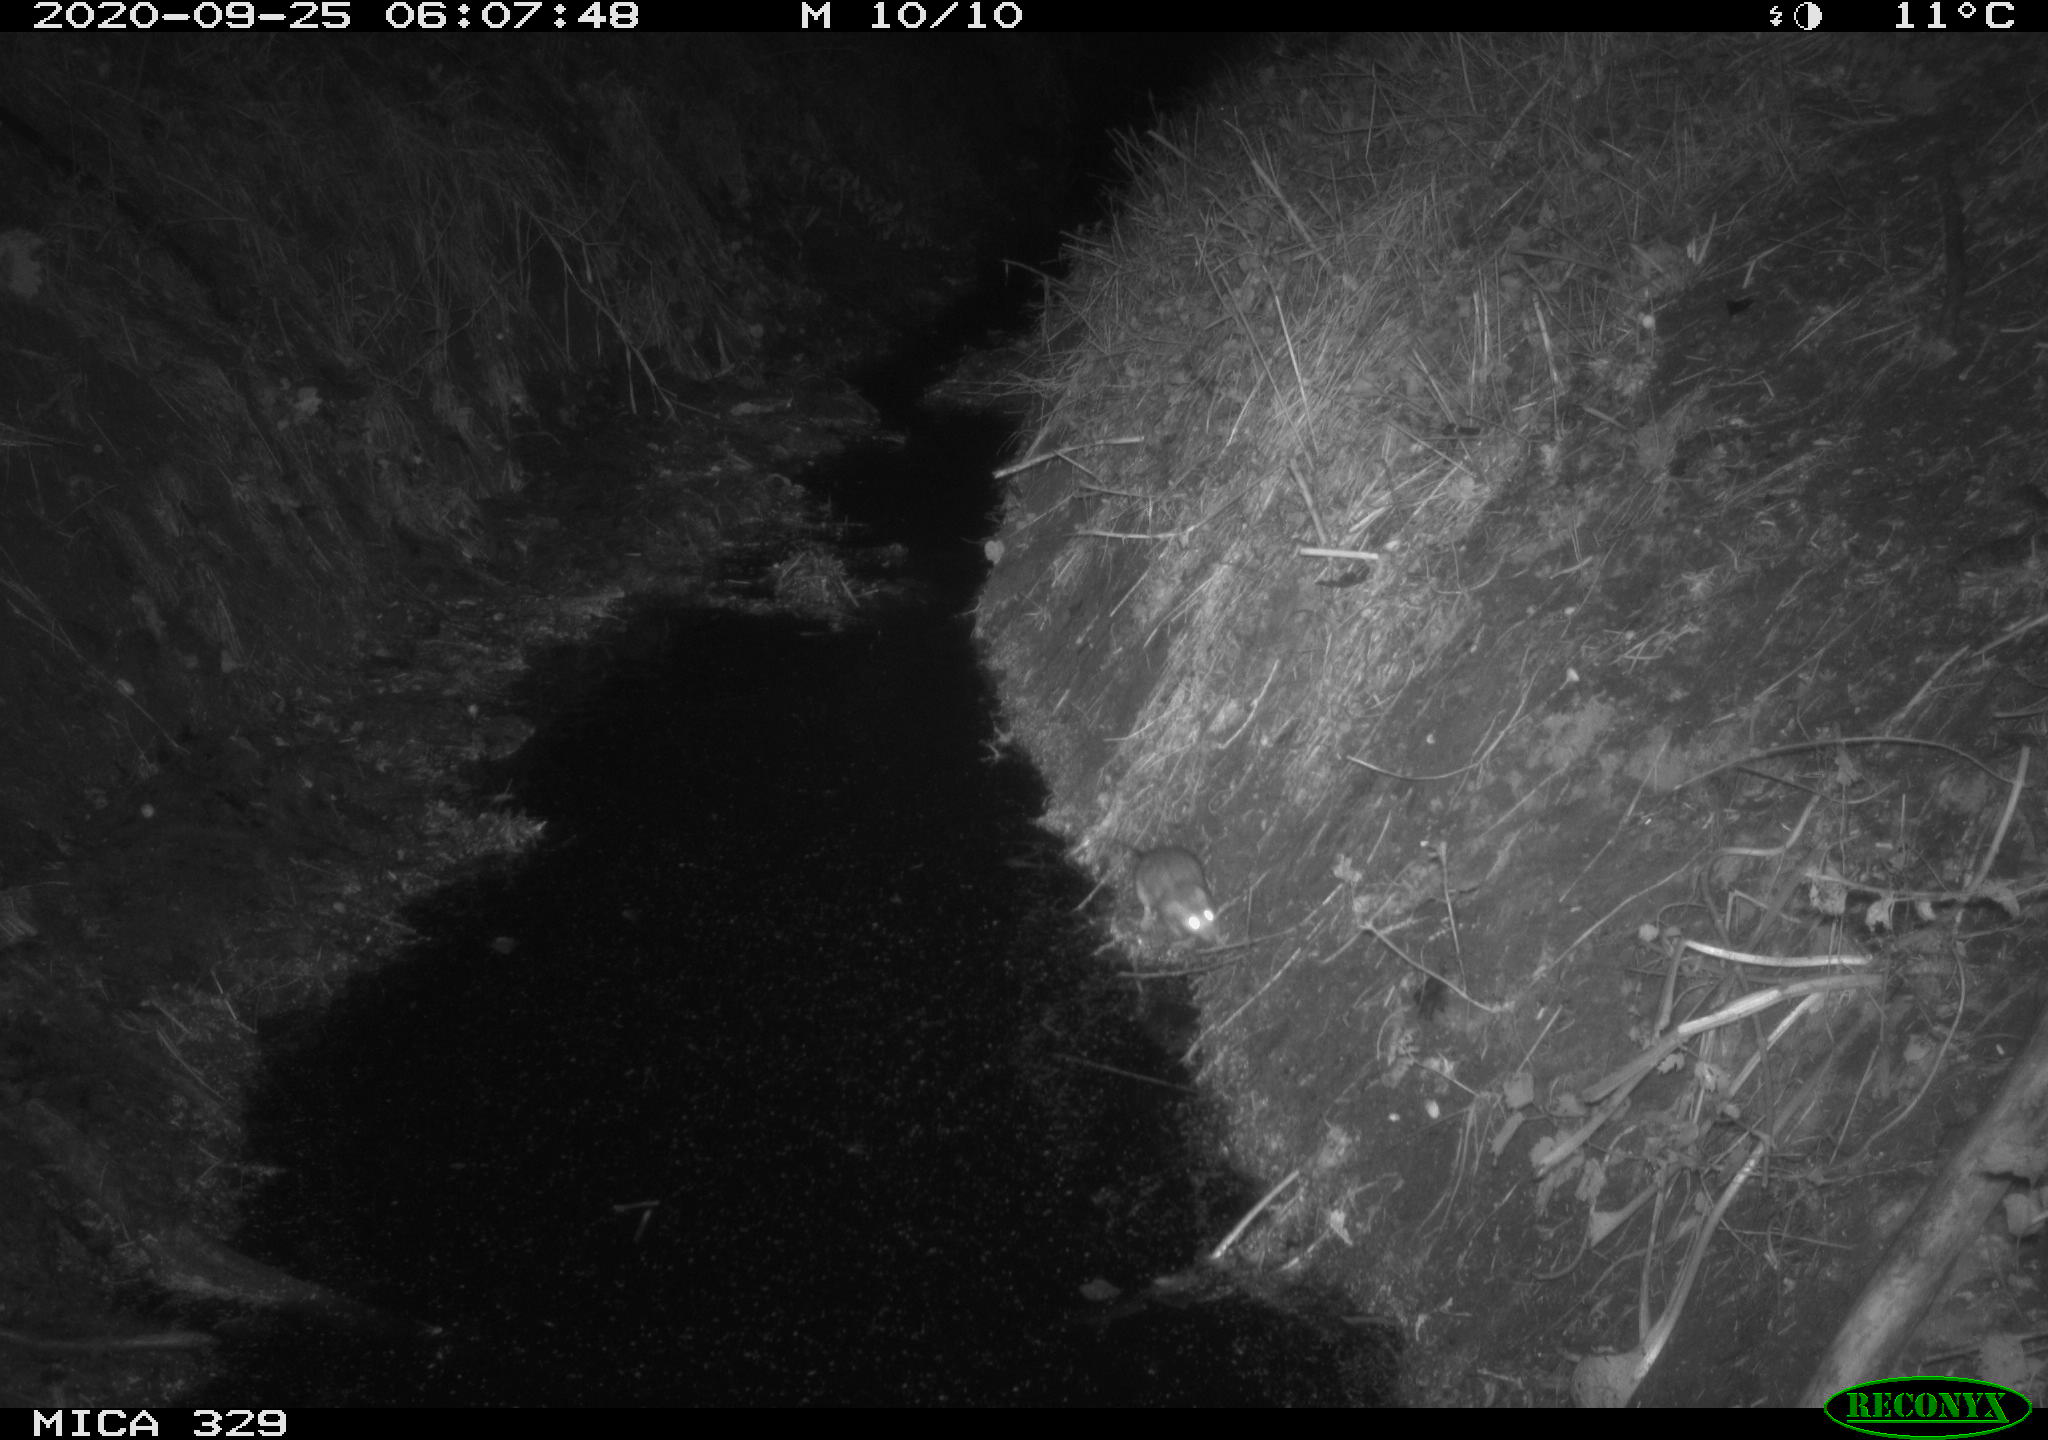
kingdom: Animalia
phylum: Chordata
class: Mammalia
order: Rodentia
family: Cricetidae
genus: Ondatra
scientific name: Ondatra zibethicus
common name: Muskrat
